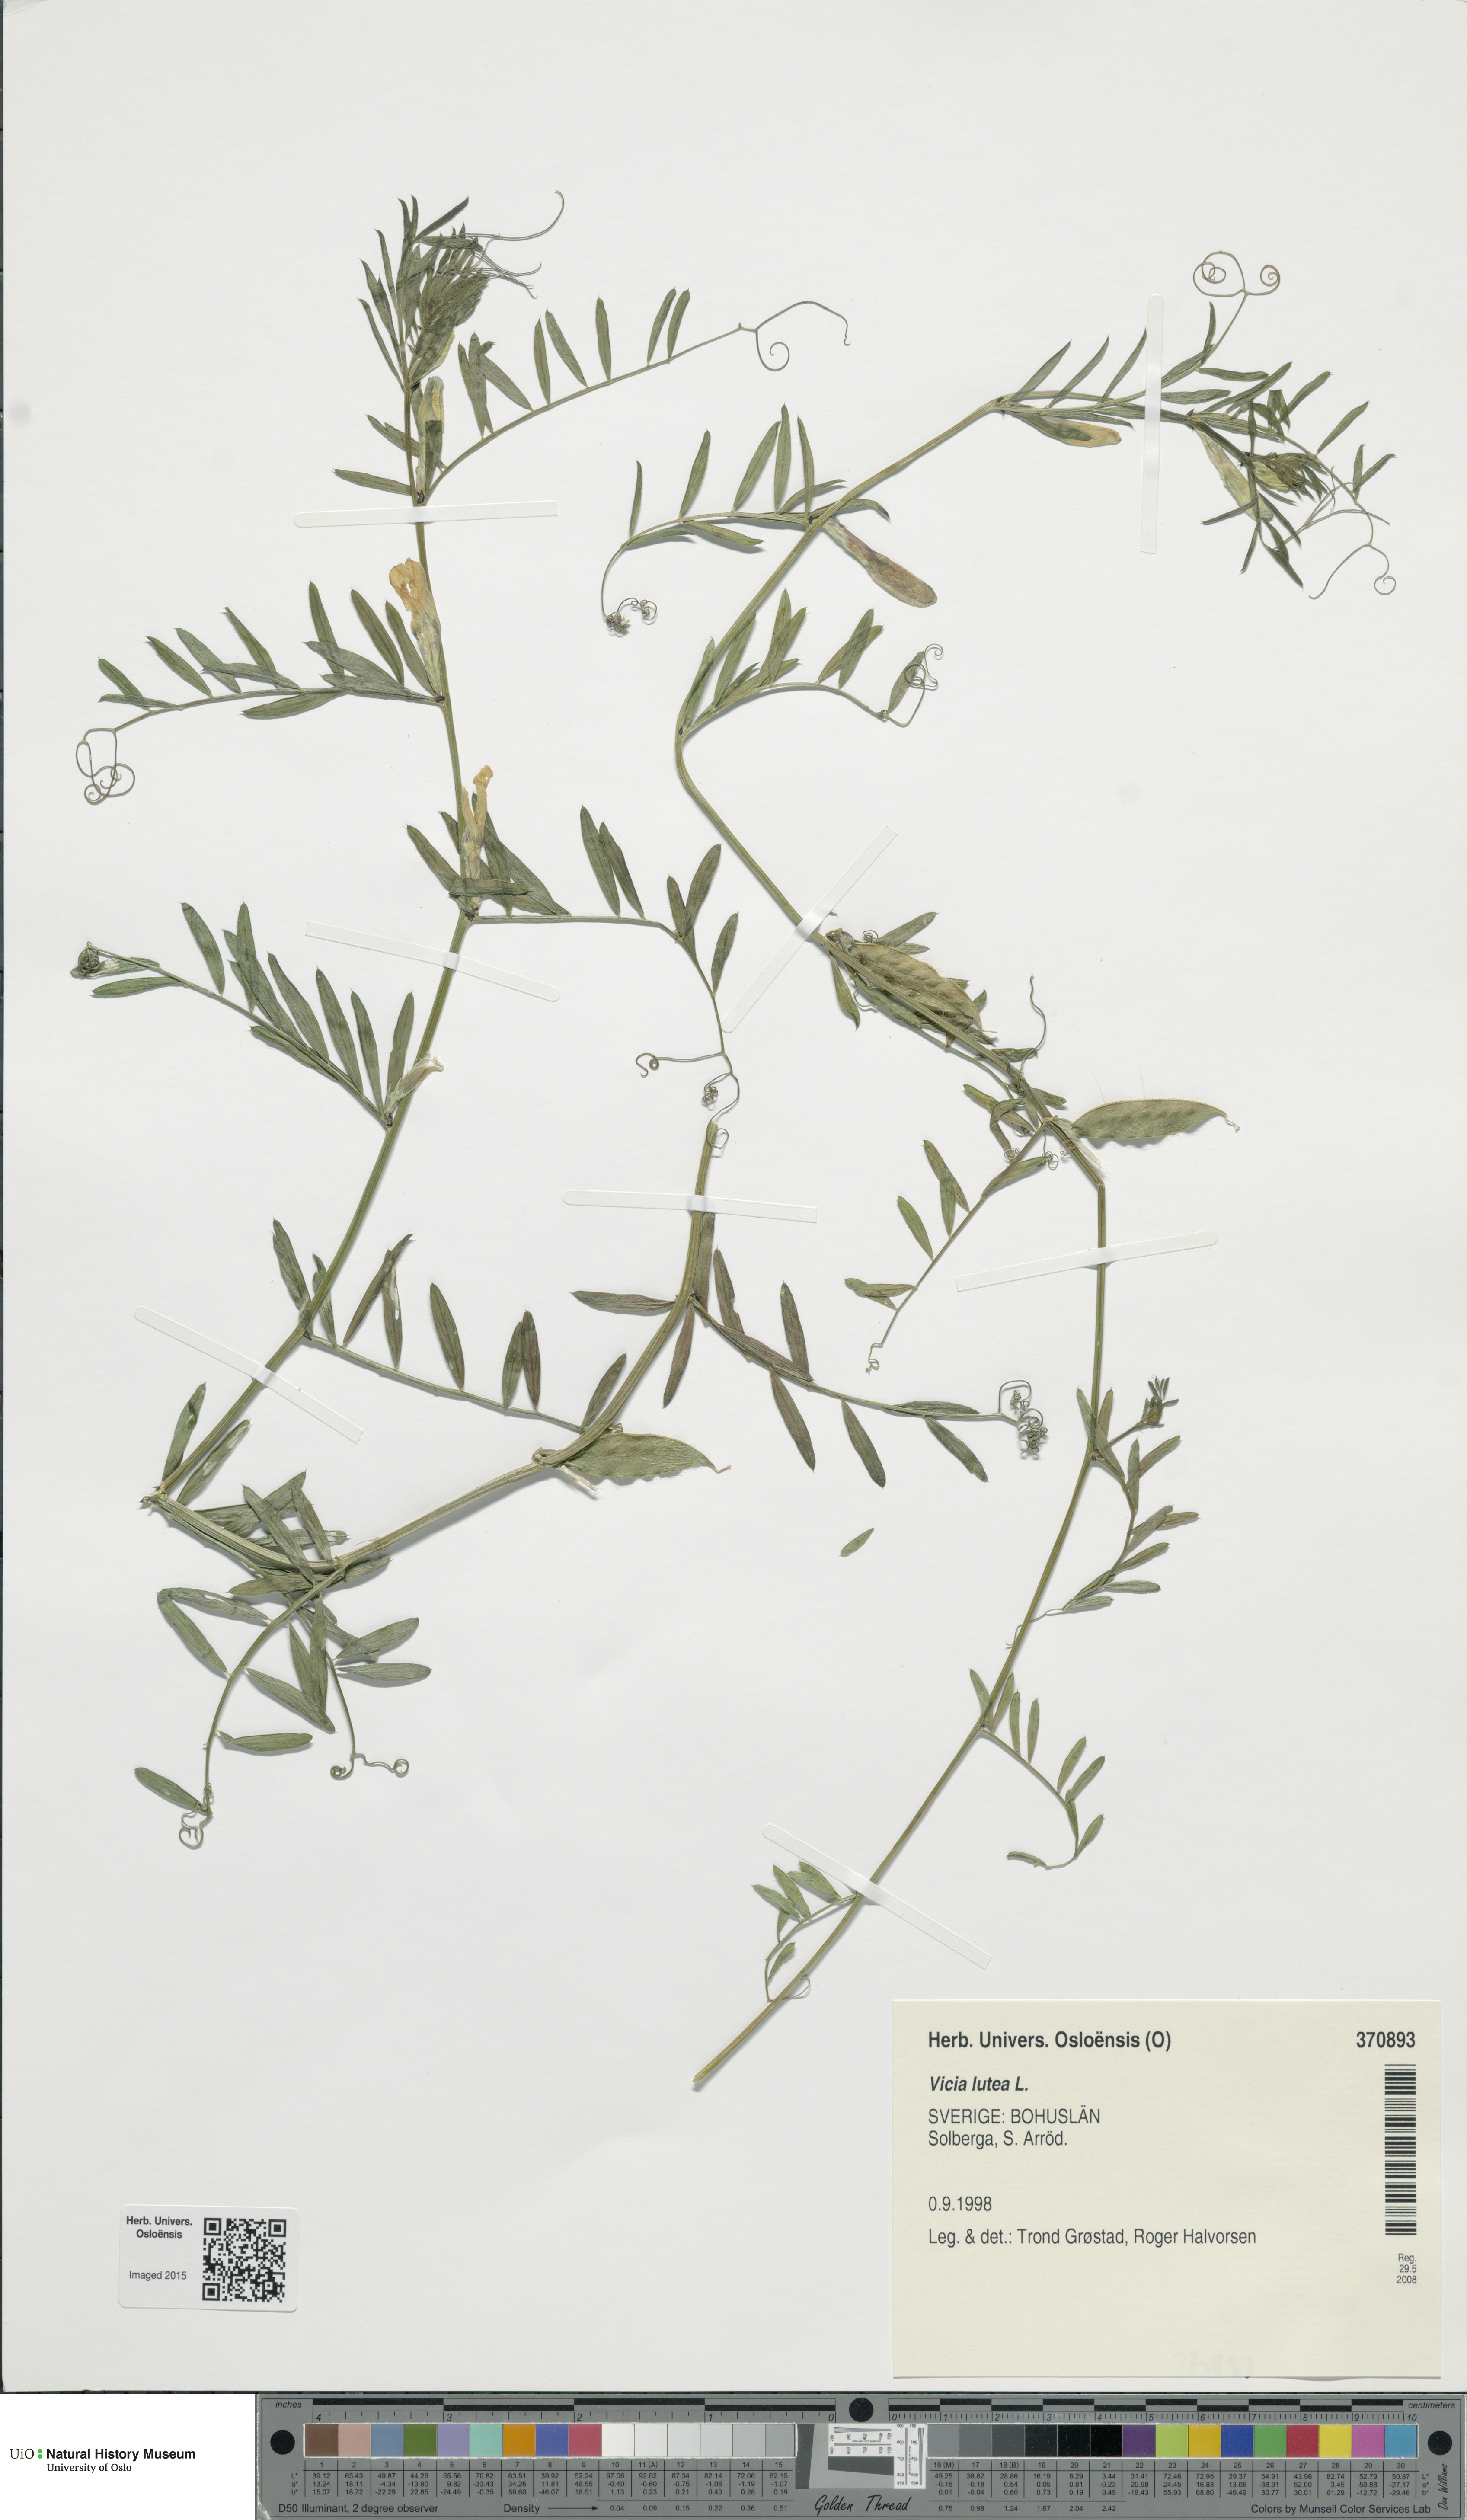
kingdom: Plantae
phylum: Tracheophyta
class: Magnoliopsida
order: Fabales
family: Fabaceae
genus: Vicia
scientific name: Vicia lutea
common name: Smooth yellow vetch
